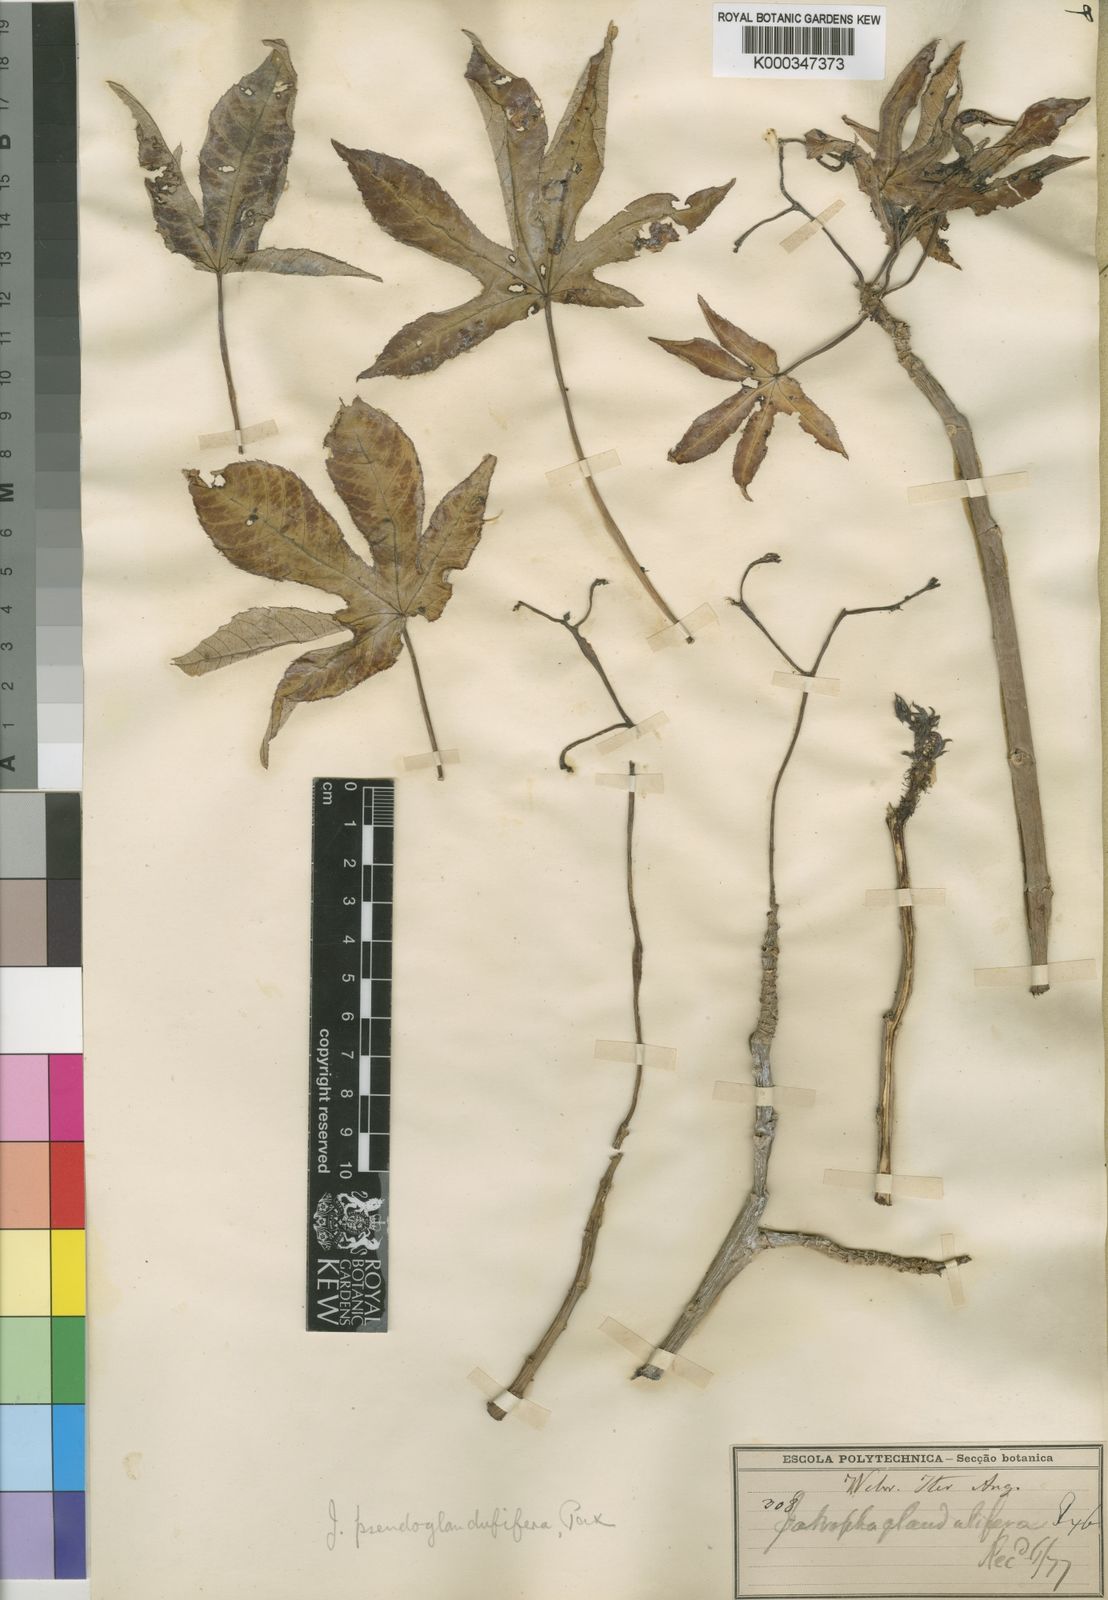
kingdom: Plantae
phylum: Tracheophyta
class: Magnoliopsida
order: Malpighiales
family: Euphorbiaceae
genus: Jatropha
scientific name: Jatropha spicata
